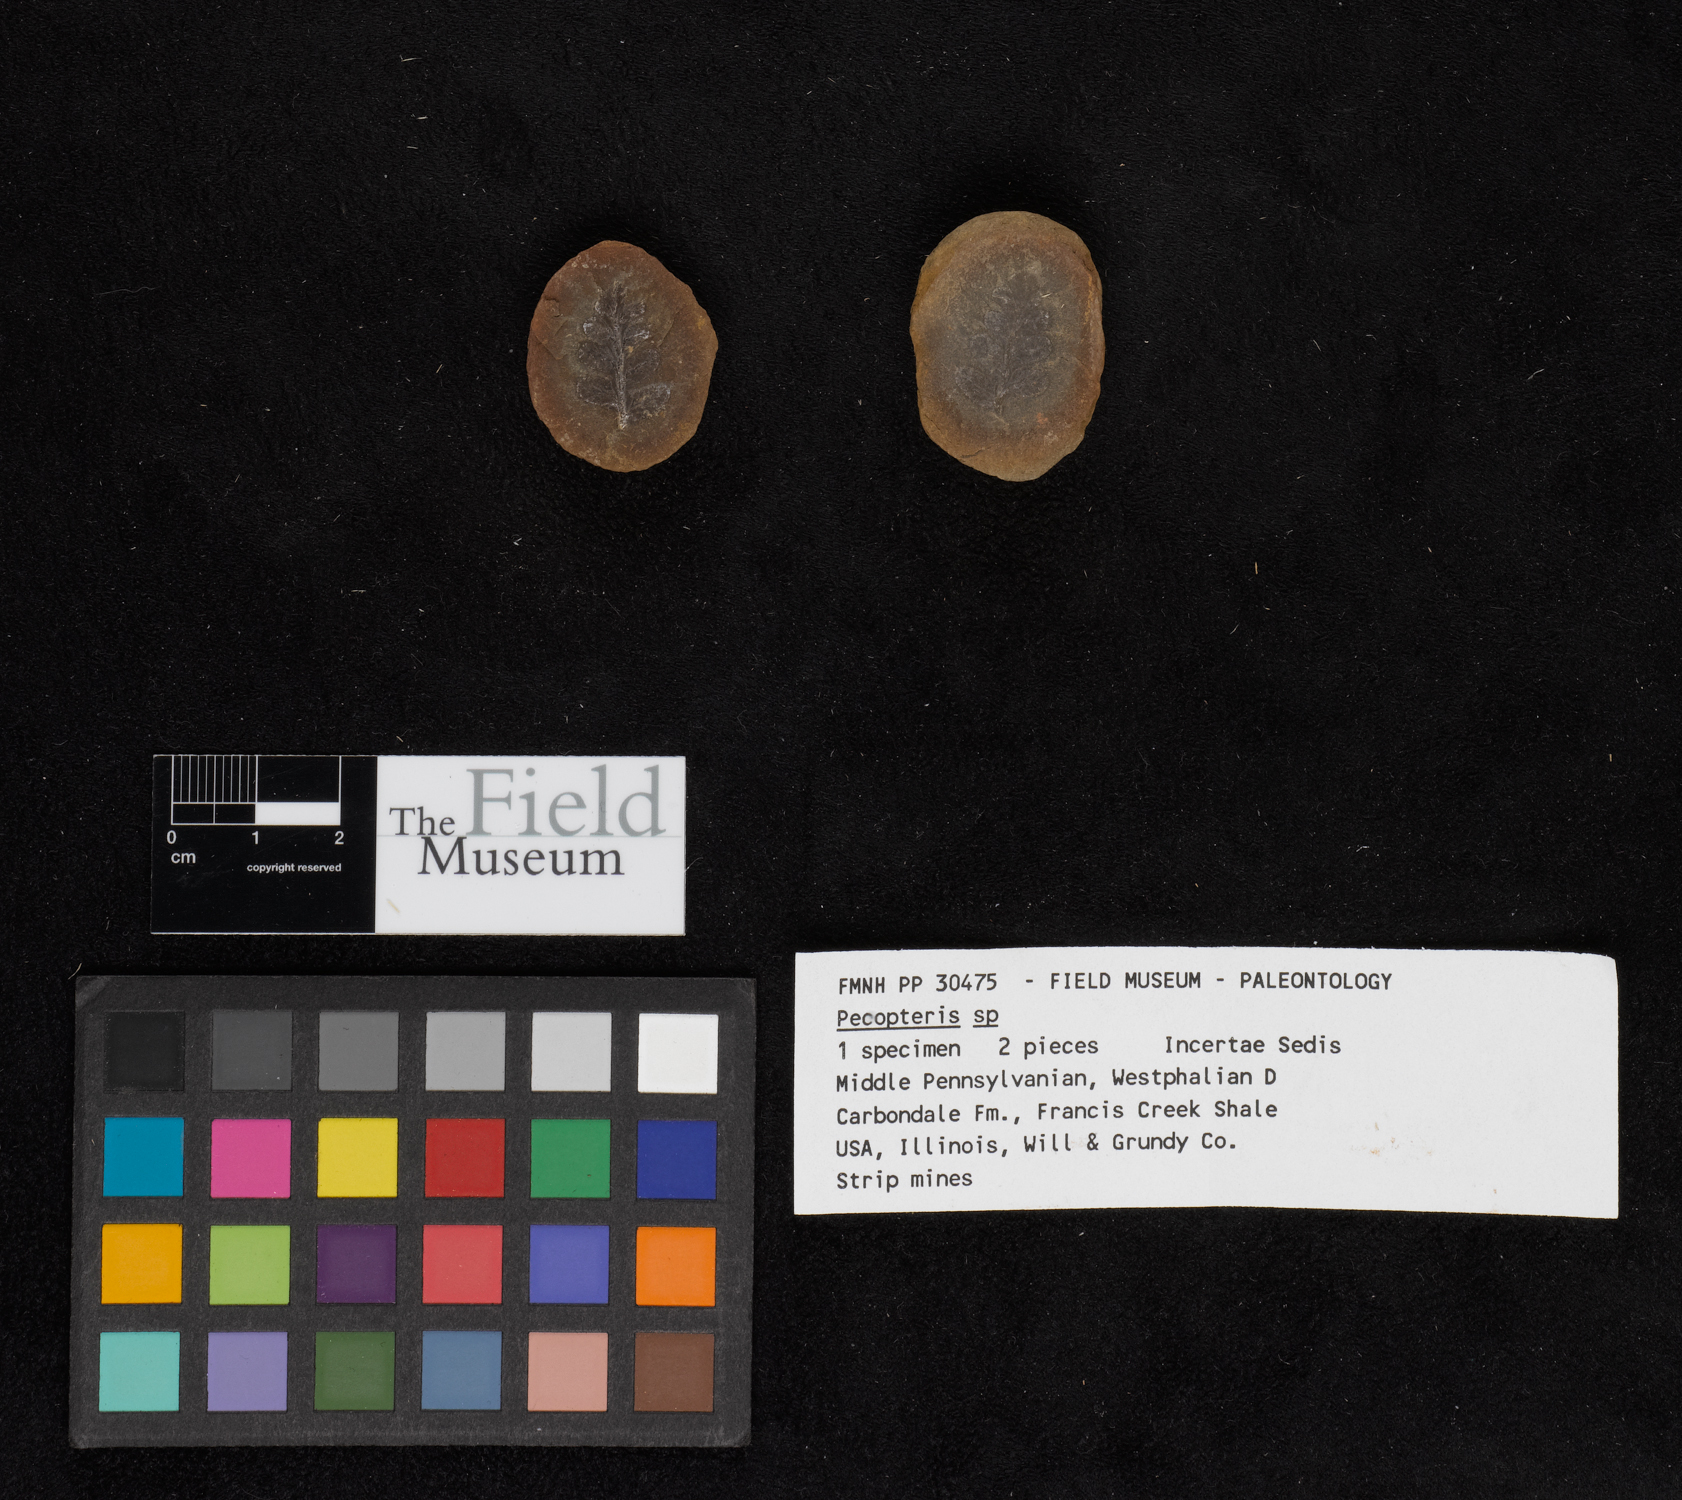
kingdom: Plantae
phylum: Tracheophyta
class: Polypodiopsida
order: Marattiales
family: Asterothecaceae
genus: Pecopteris
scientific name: Pecopteris
